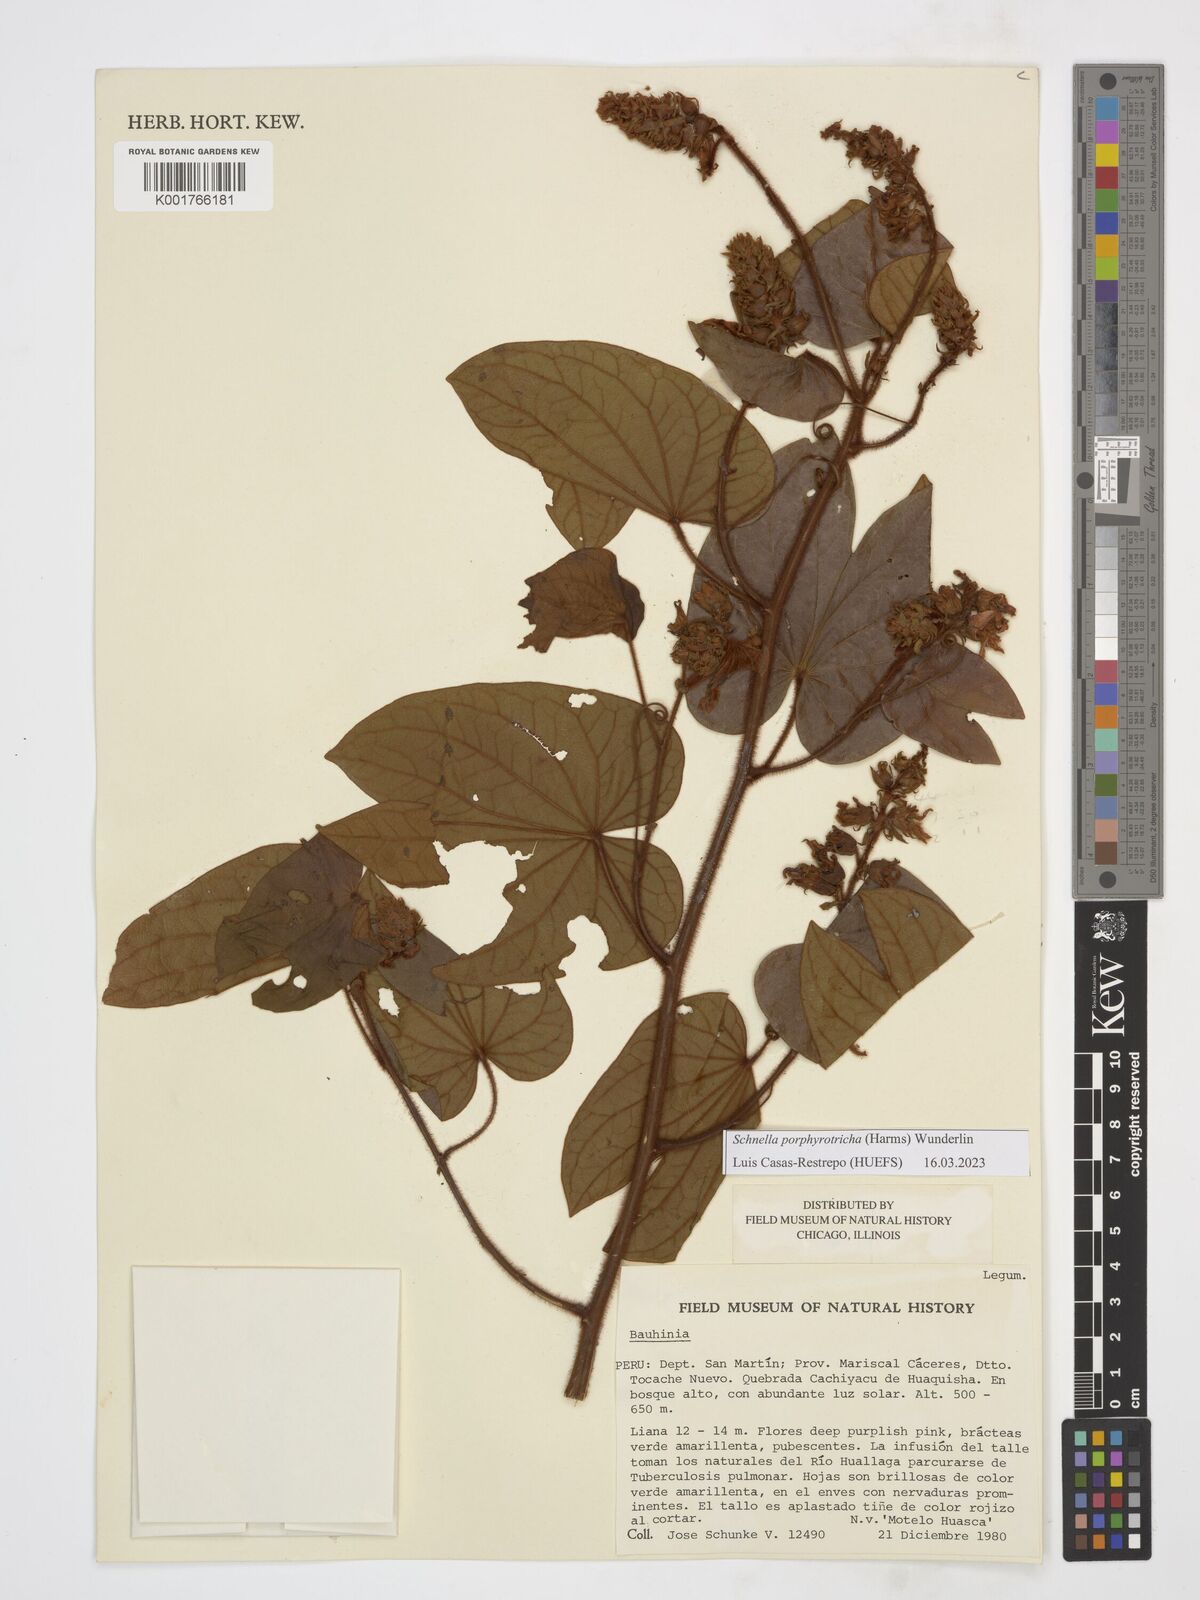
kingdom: Plantae
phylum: Tracheophyta
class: Magnoliopsida
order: Fabales
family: Fabaceae
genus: Schnella
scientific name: Schnella porphyrotricha
